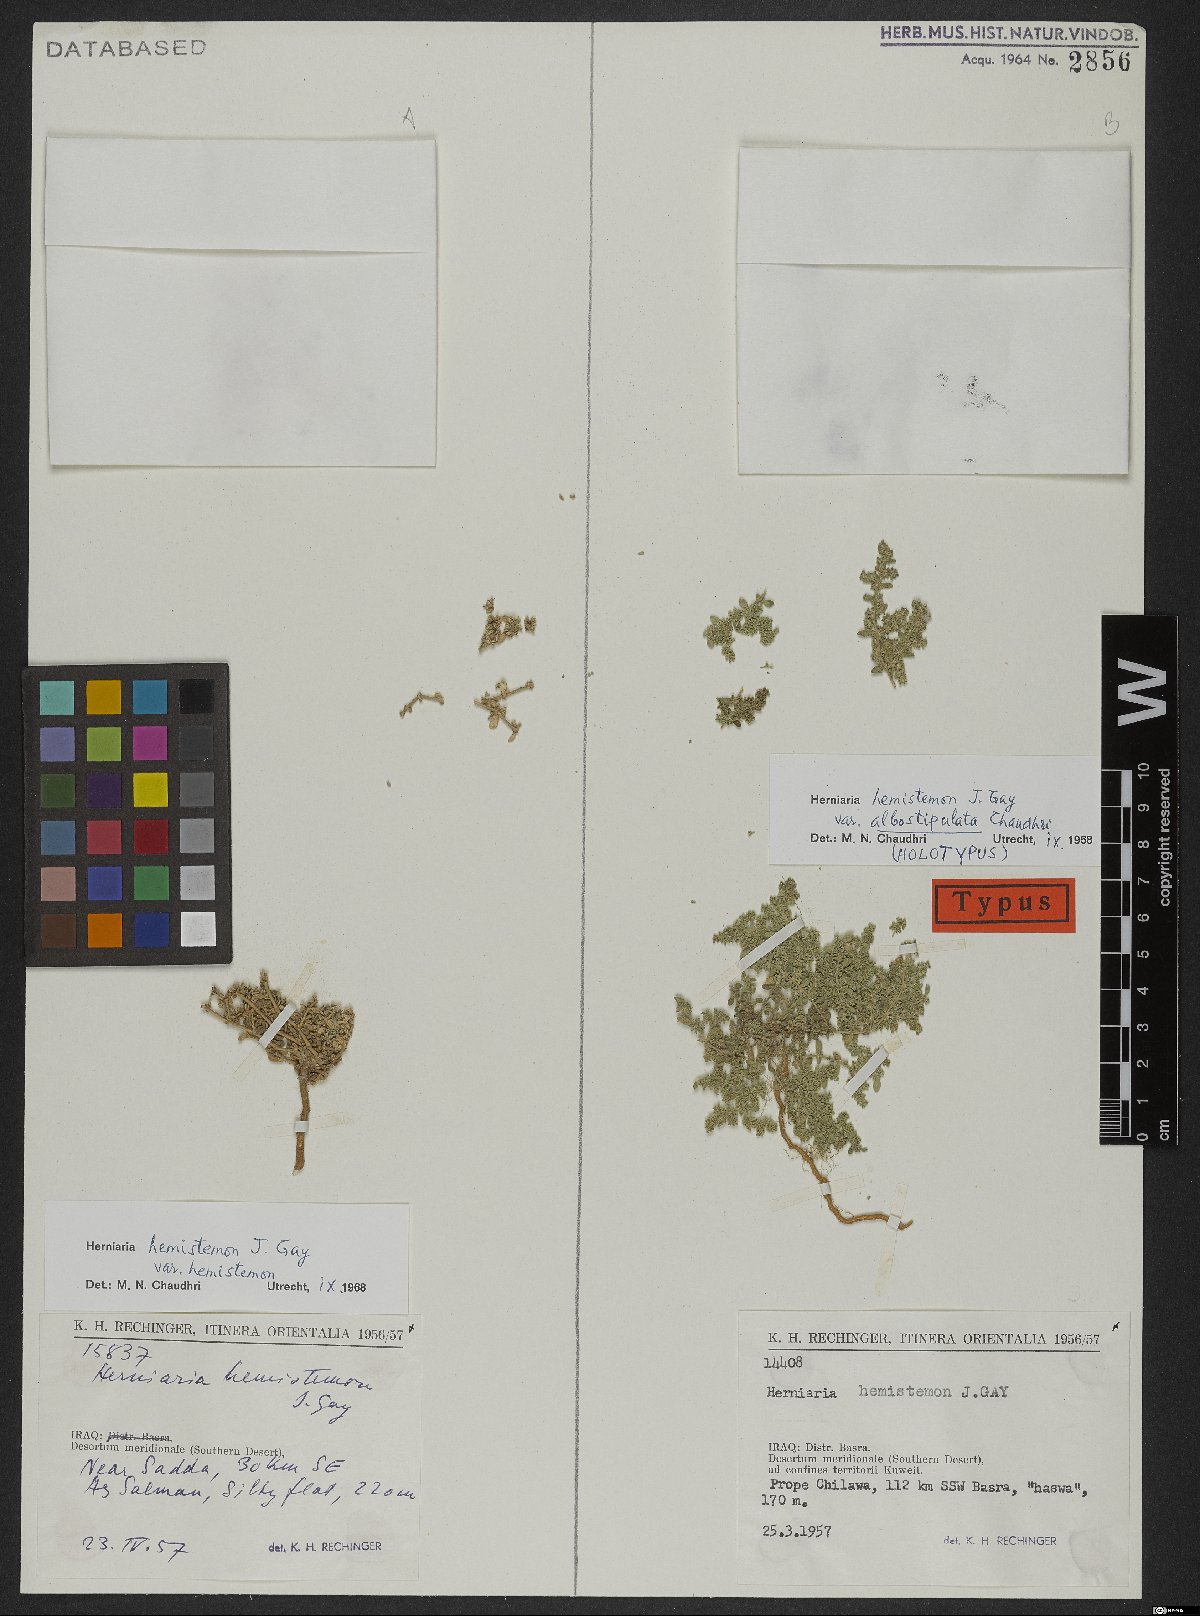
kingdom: Plantae
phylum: Tracheophyta
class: Magnoliopsida
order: Caryophyllales
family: Caryophyllaceae
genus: Herniaria
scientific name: Herniaria hemistemon
